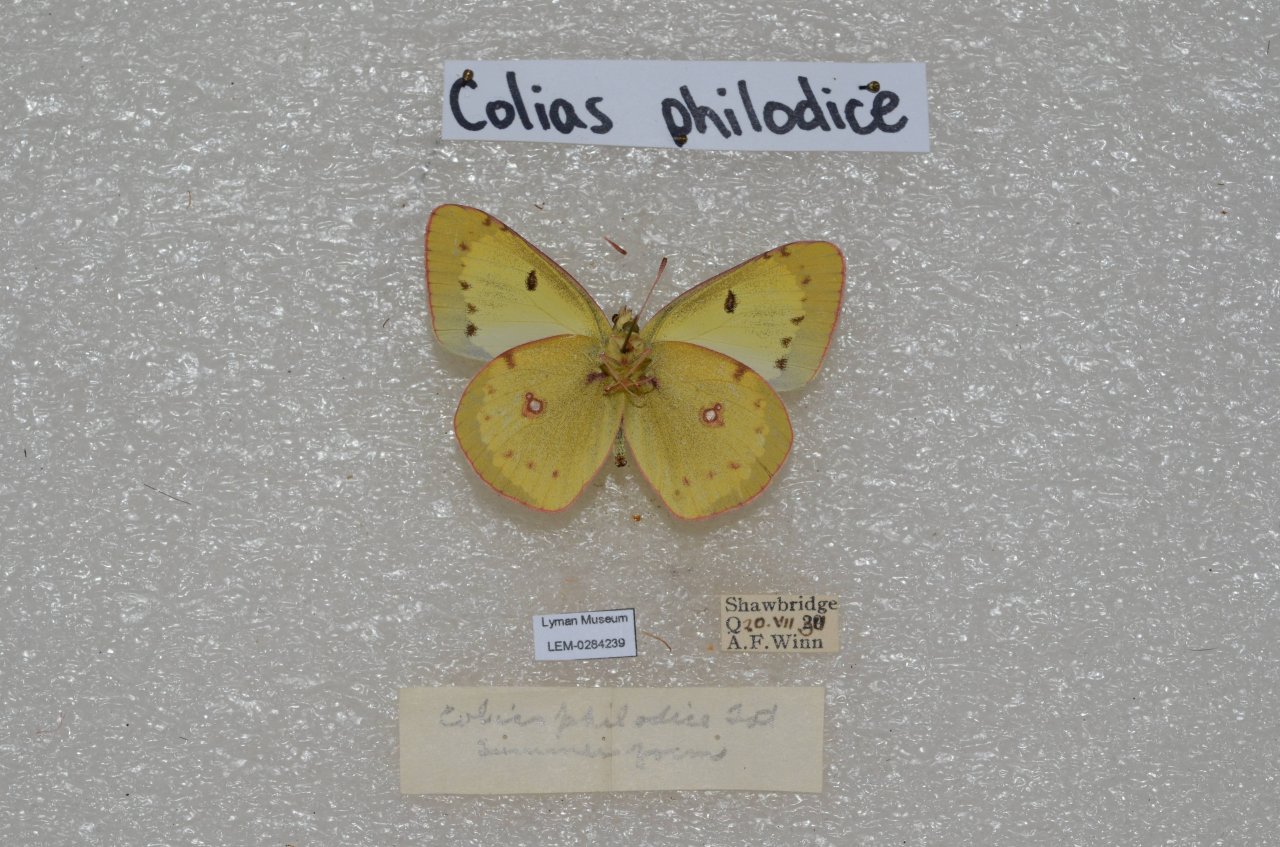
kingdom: Animalia
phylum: Arthropoda
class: Insecta
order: Lepidoptera
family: Pieridae
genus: Colias
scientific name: Colias philodice
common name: Clouded Sulphur
